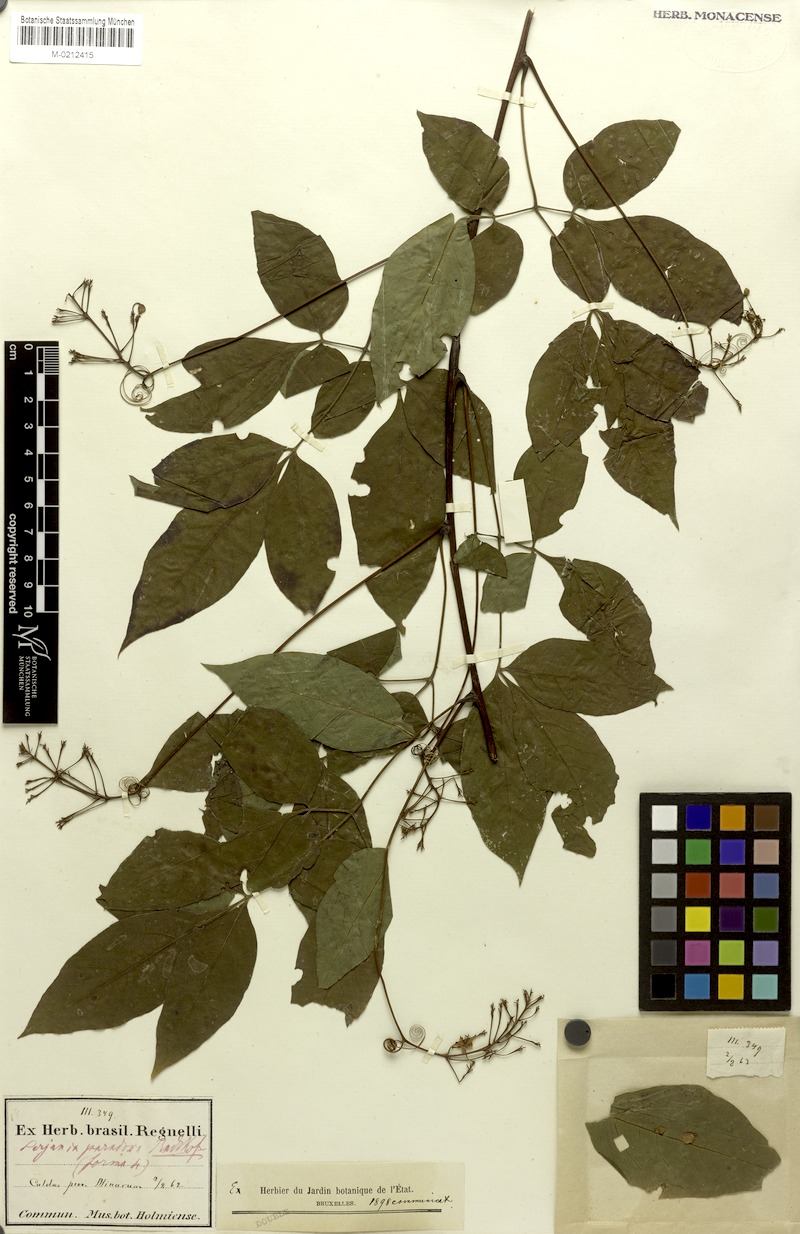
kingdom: Plantae
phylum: Tracheophyta
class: Magnoliopsida
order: Sapindales
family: Sapindaceae
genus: Serjania
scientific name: Serjania paradoxa
